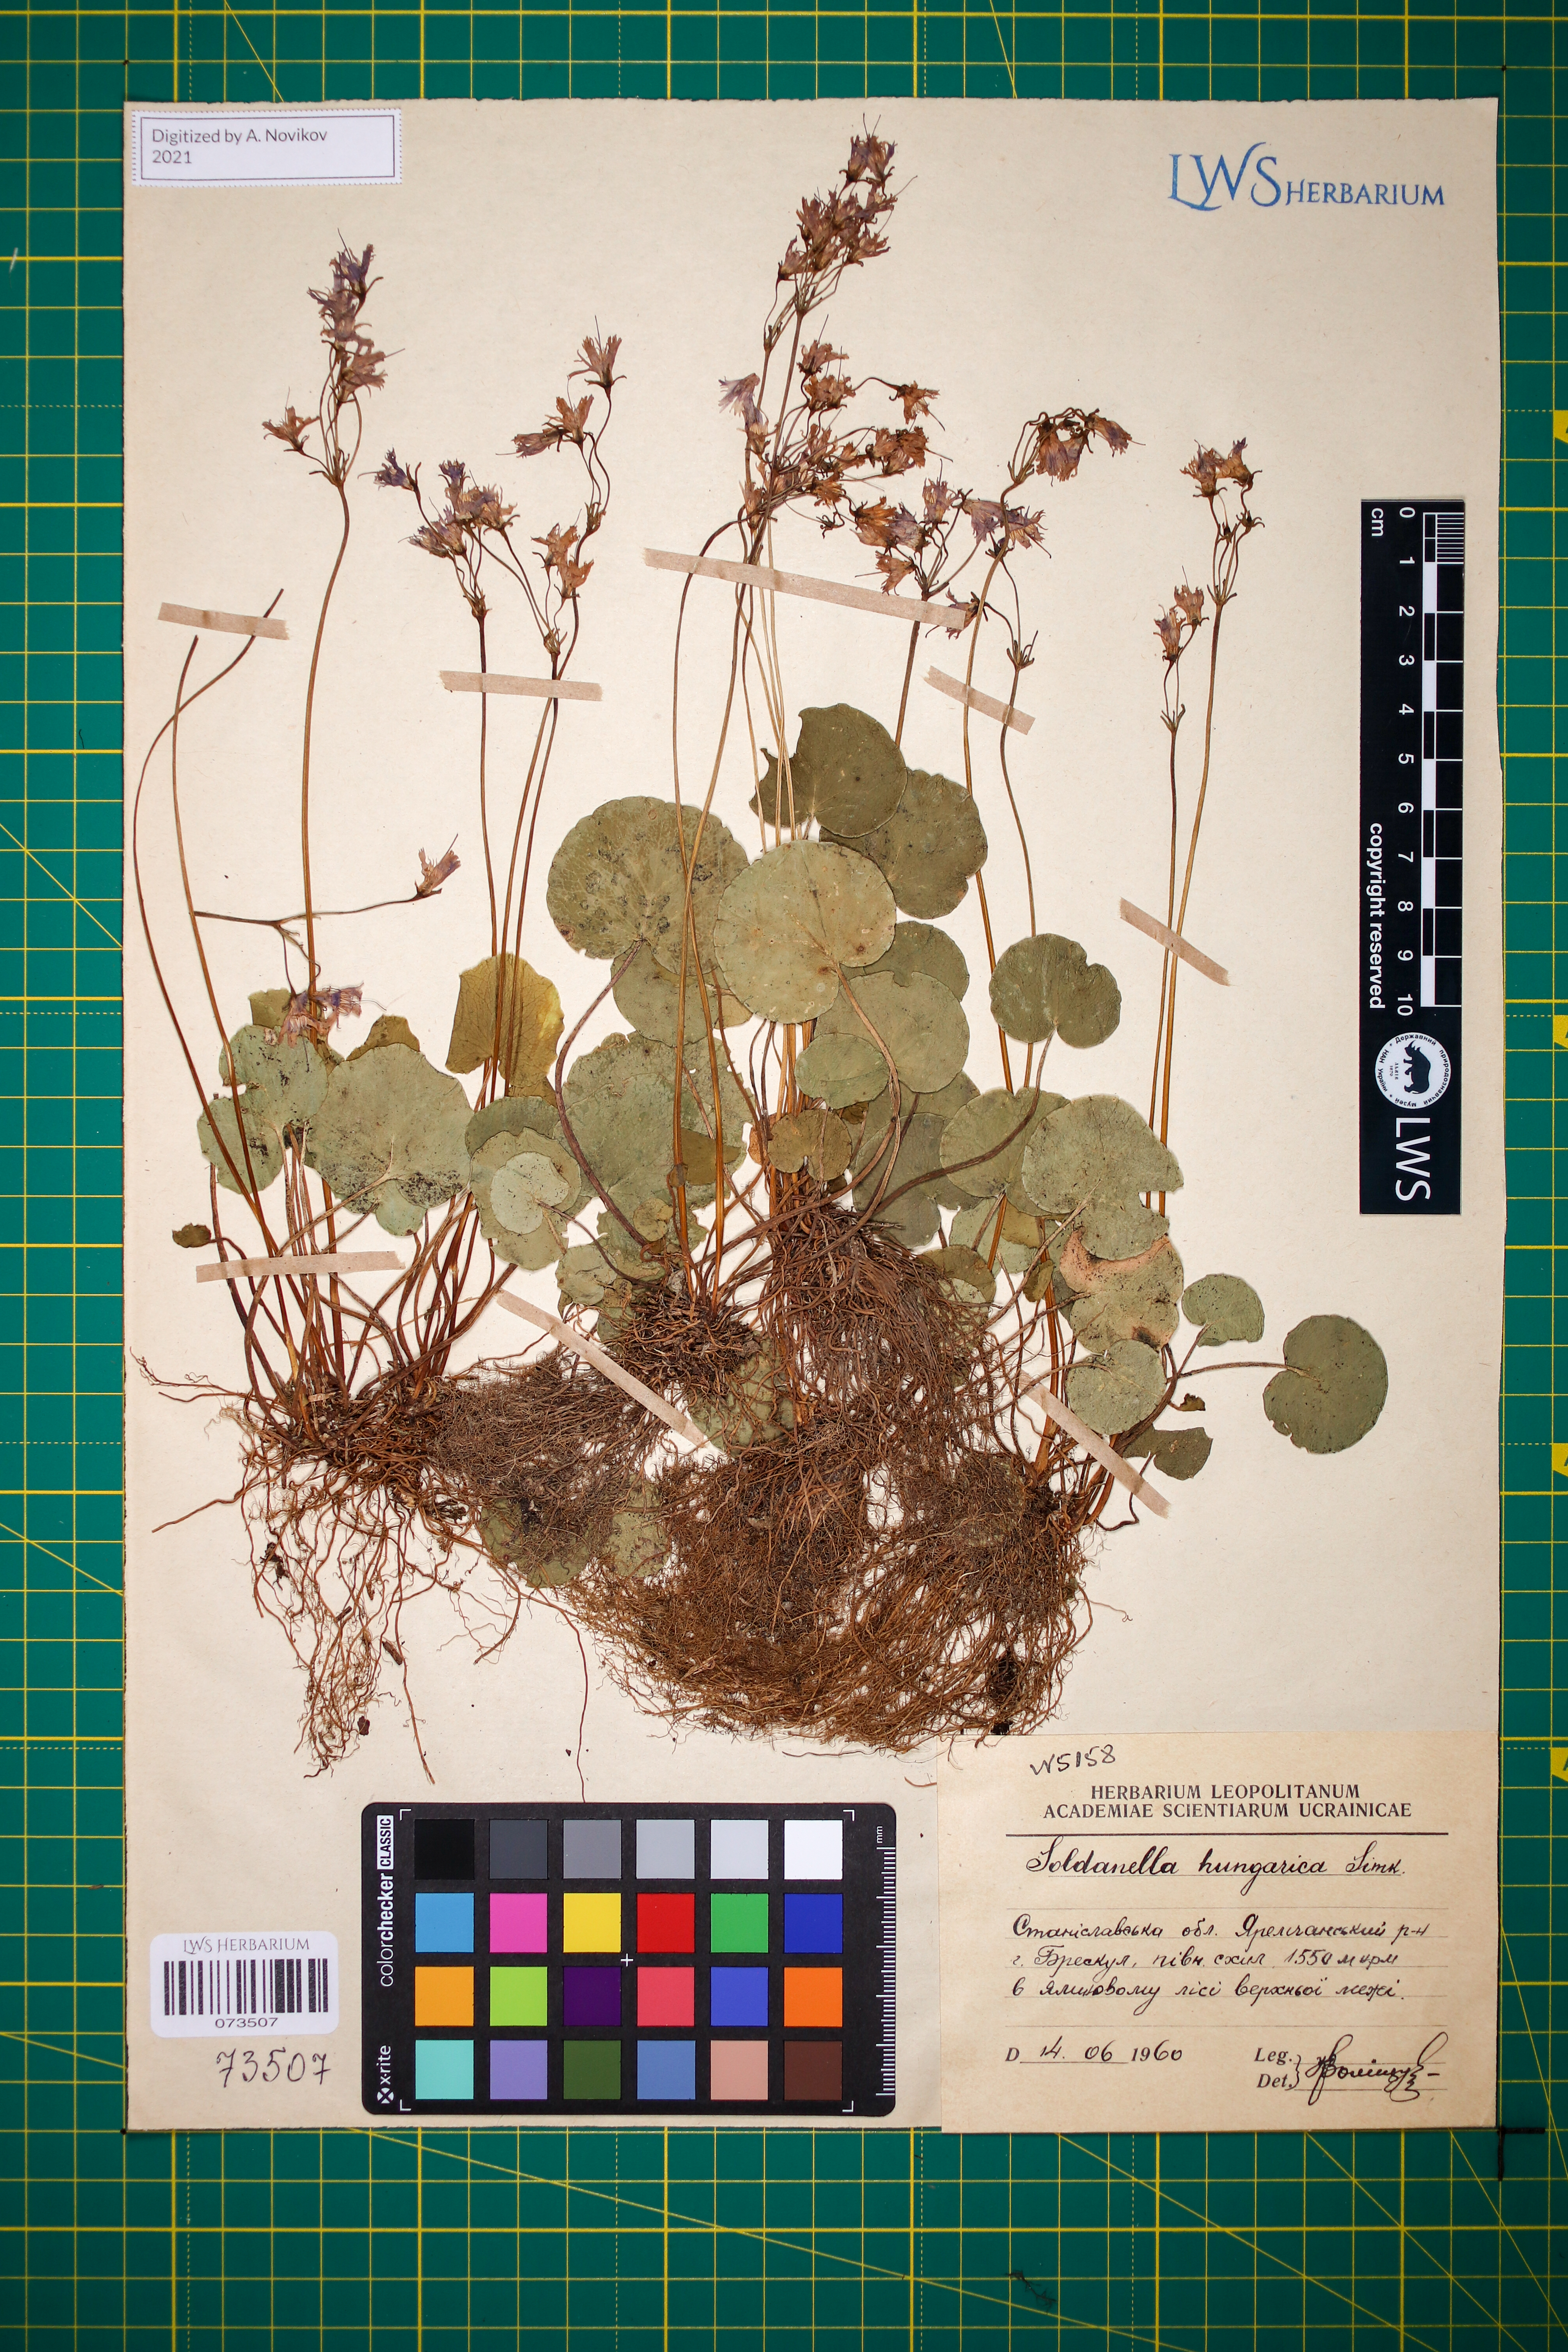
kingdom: Plantae
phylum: Tracheophyta
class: Magnoliopsida
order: Ericales
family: Primulaceae
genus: Soldanella
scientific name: Soldanella hungarica
